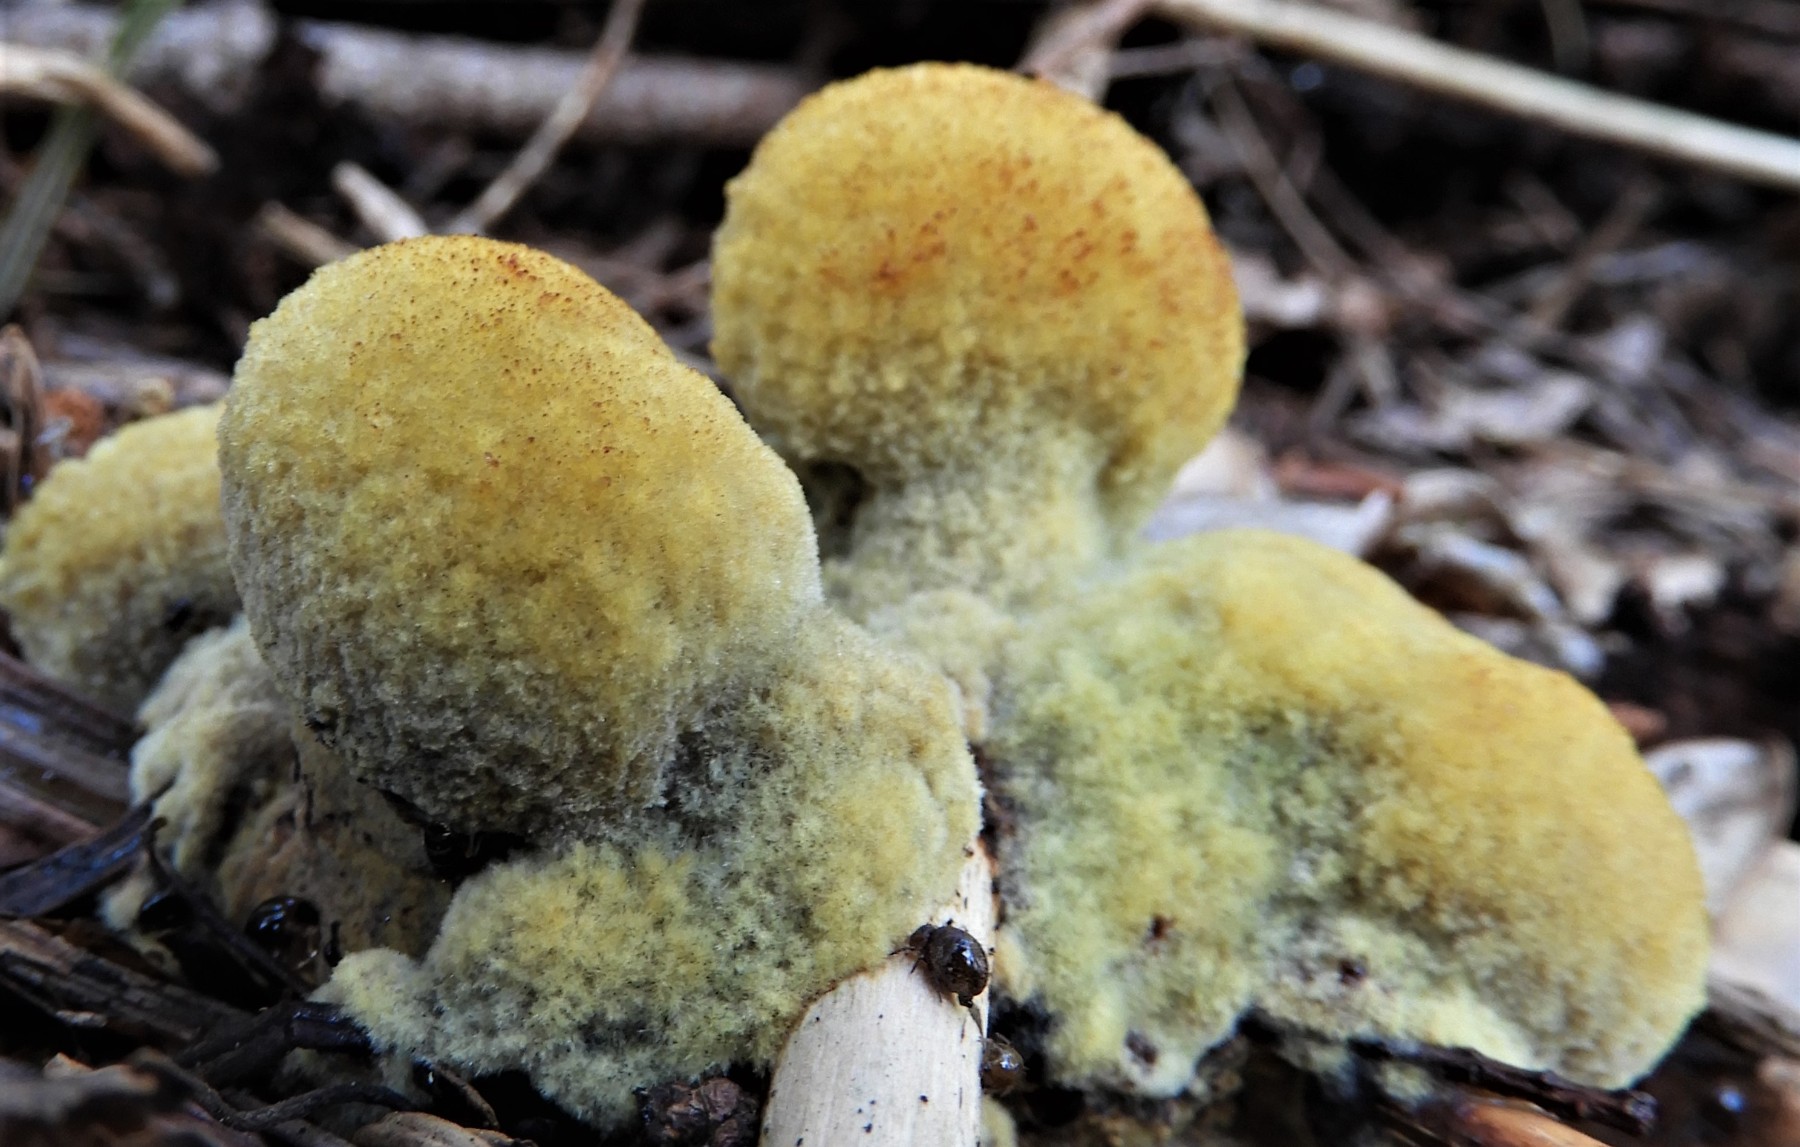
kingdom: Fungi
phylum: Basidiomycota
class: Agaricomycetes
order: Polyporales
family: Laetiporaceae
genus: Phaeolus
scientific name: Phaeolus schweinitzii
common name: brunporesvamp
